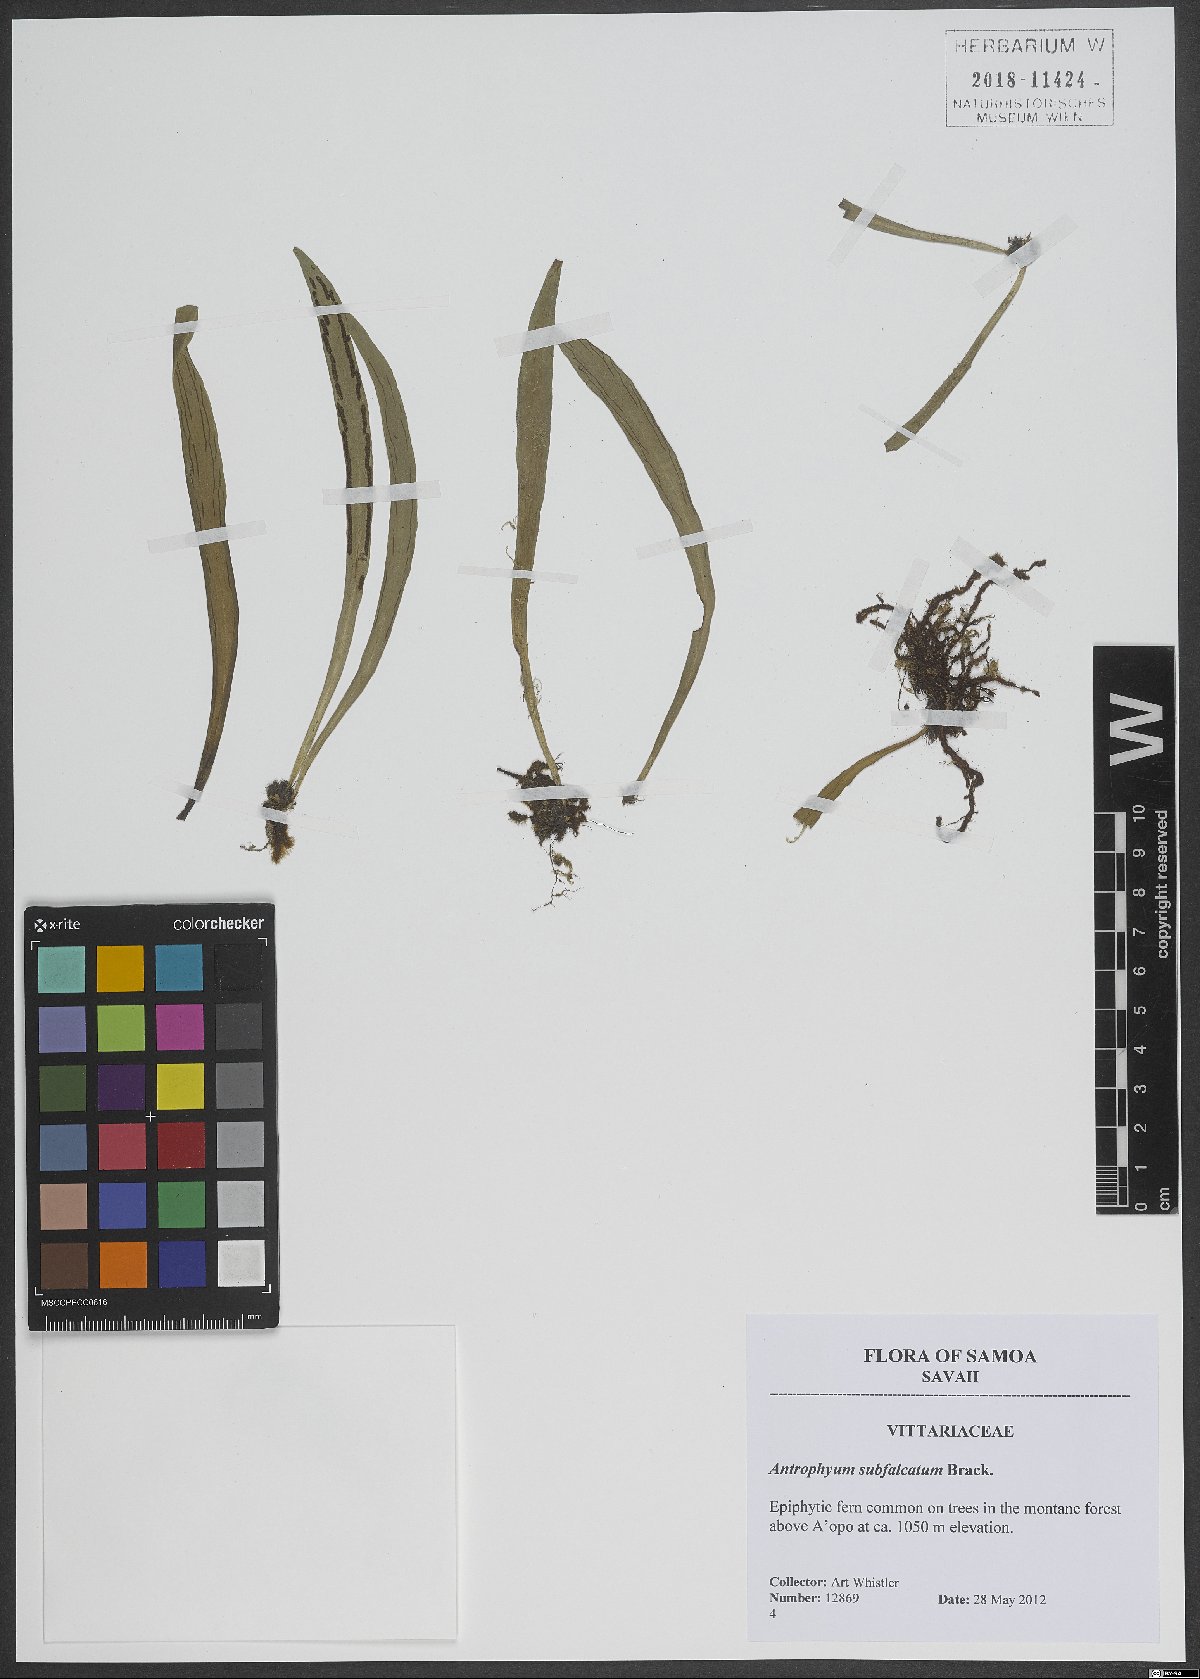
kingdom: Plantae
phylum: Tracheophyta
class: Polypodiopsida
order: Polypodiales
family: Pteridaceae
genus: Antrophyum
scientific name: Antrophyum subfalcatum
